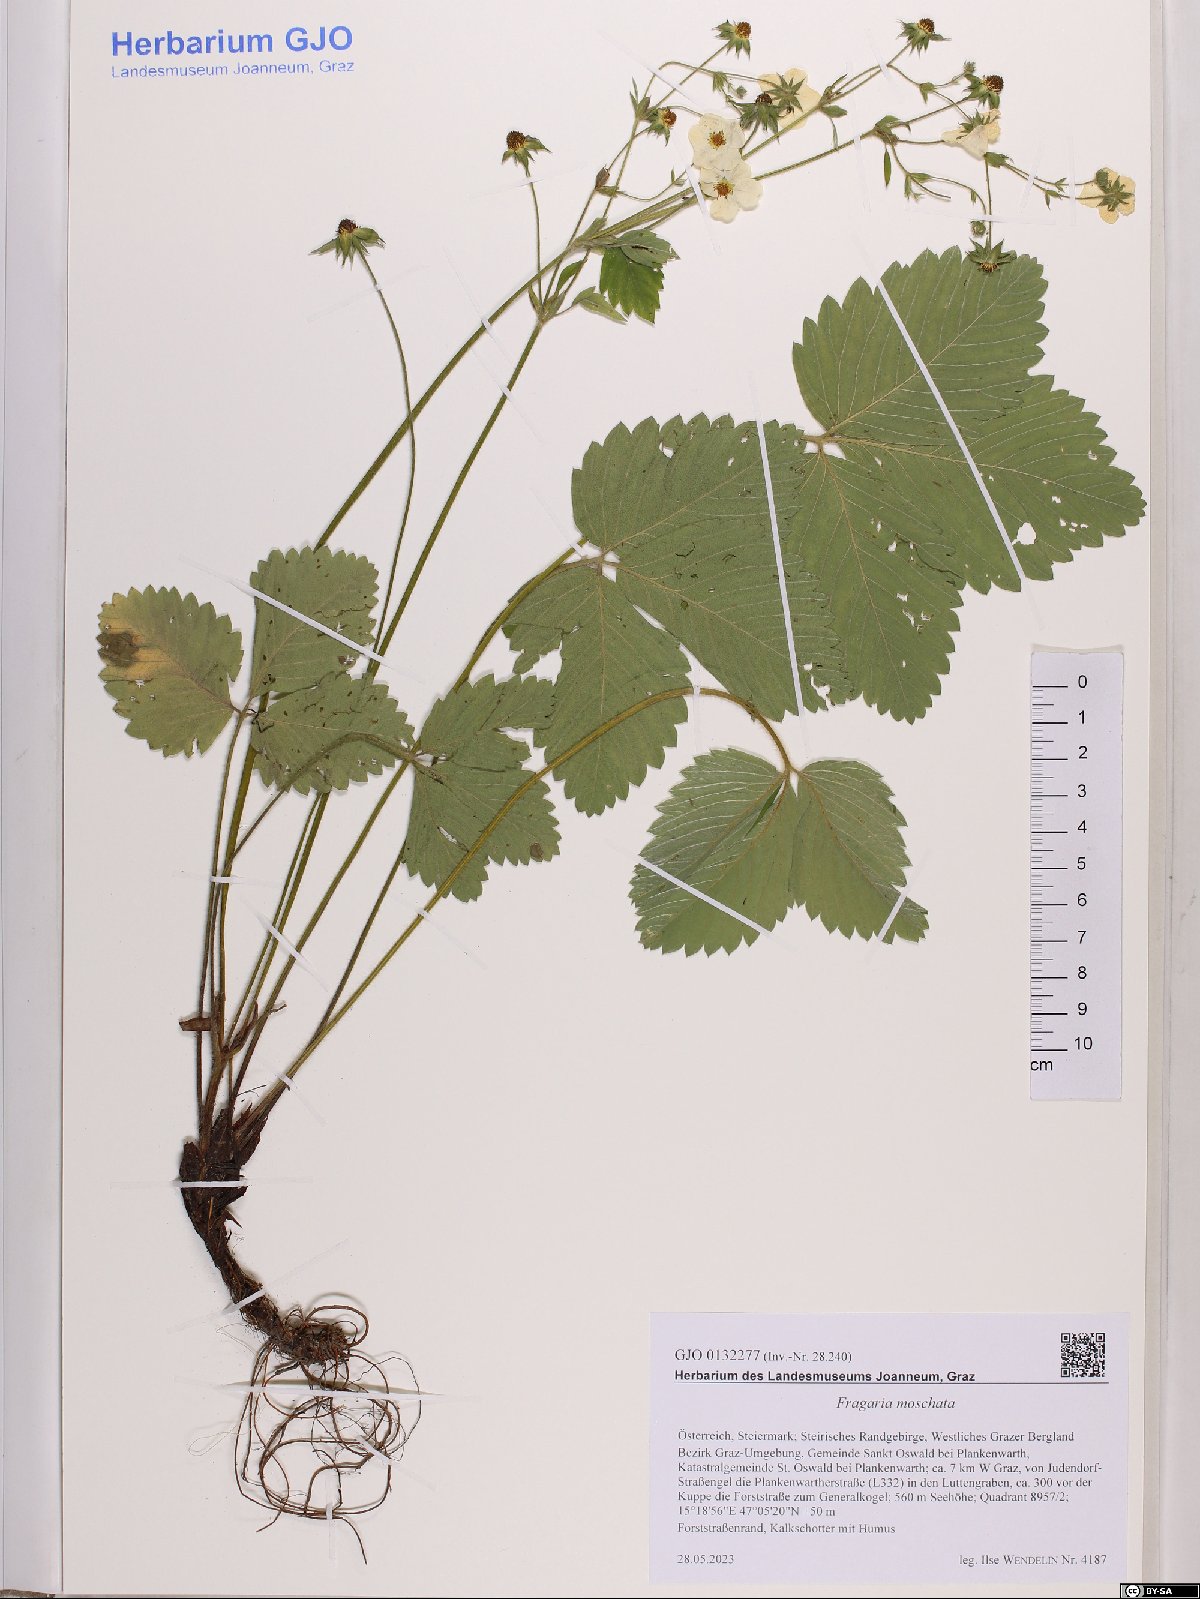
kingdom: Plantae
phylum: Tracheophyta
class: Magnoliopsida
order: Rosales
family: Rosaceae
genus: Fragaria
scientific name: Fragaria moschata
